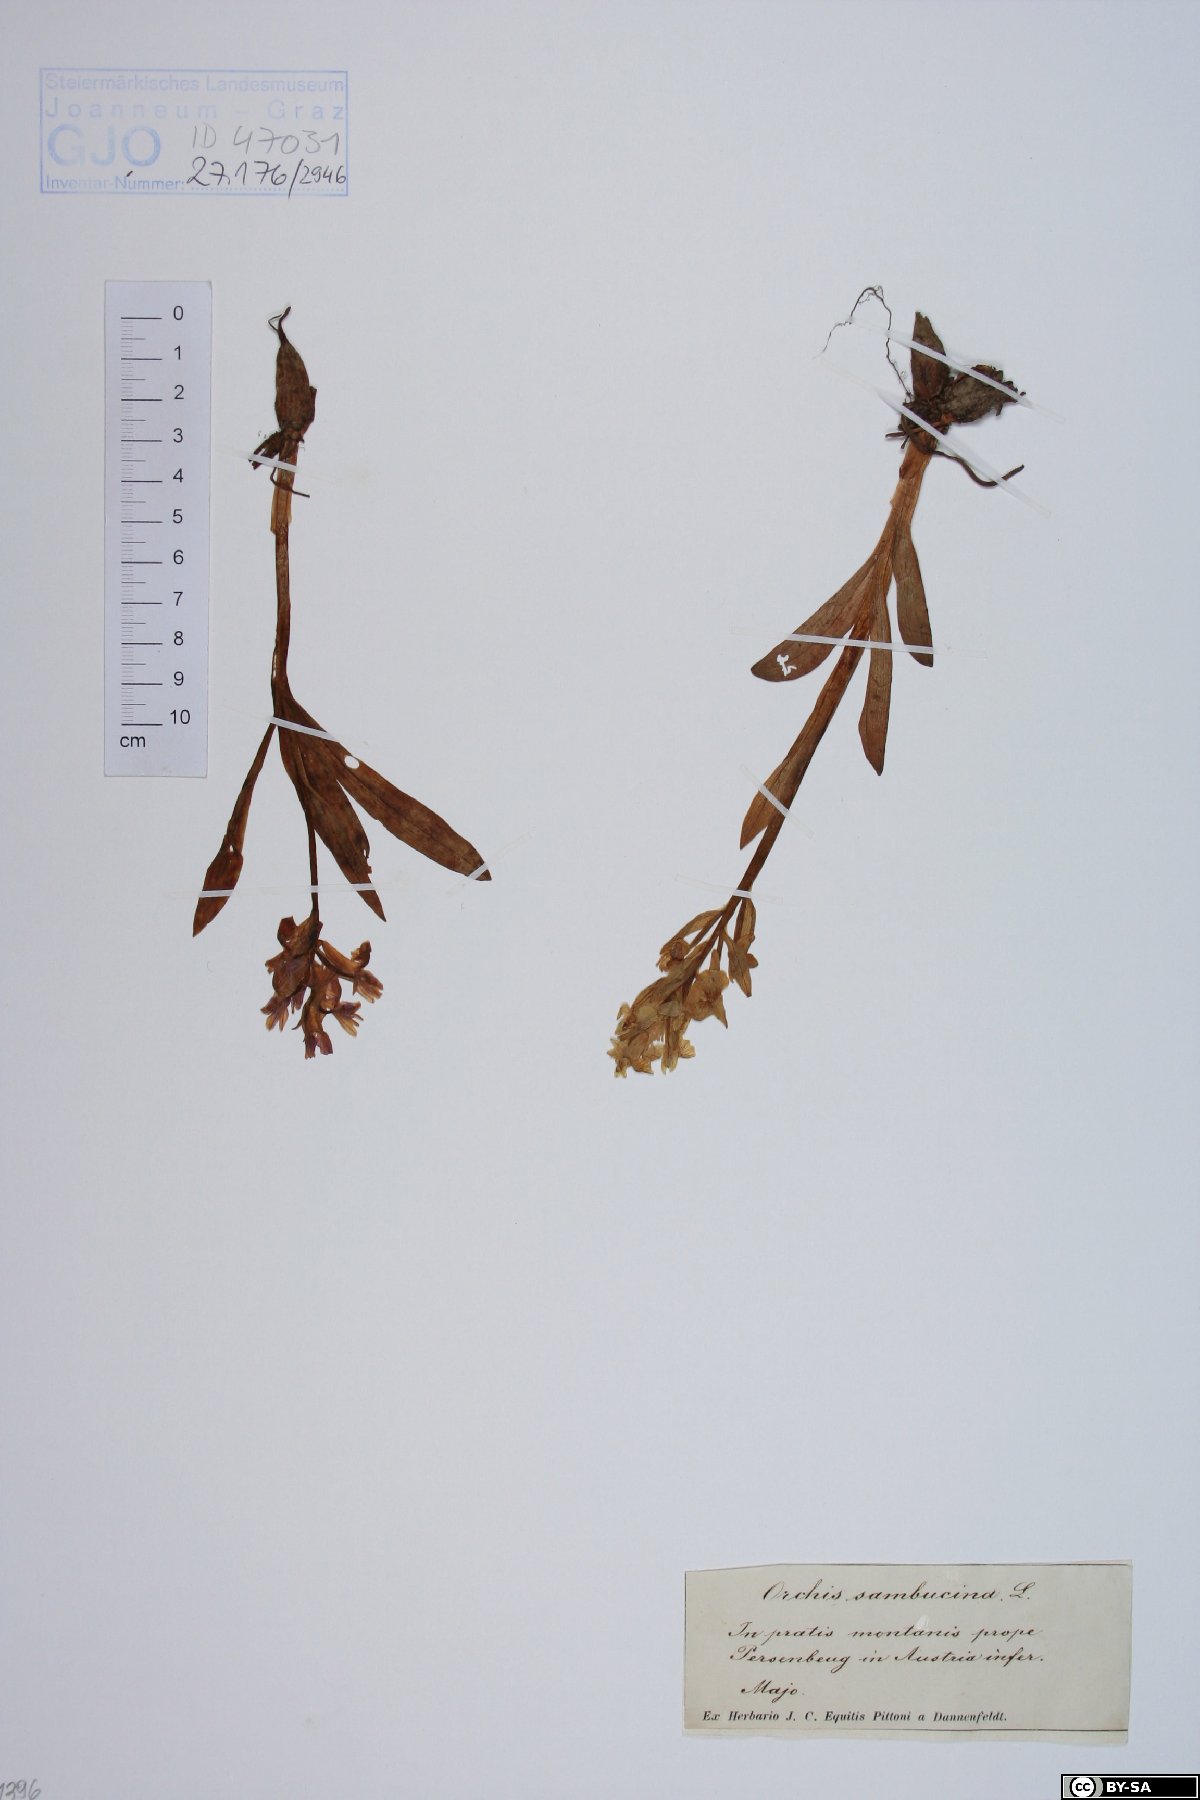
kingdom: Plantae
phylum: Tracheophyta
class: Liliopsida
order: Asparagales
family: Orchidaceae
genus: Dactylorhiza
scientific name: Dactylorhiza sambucina
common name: Elder-flowered orchid
